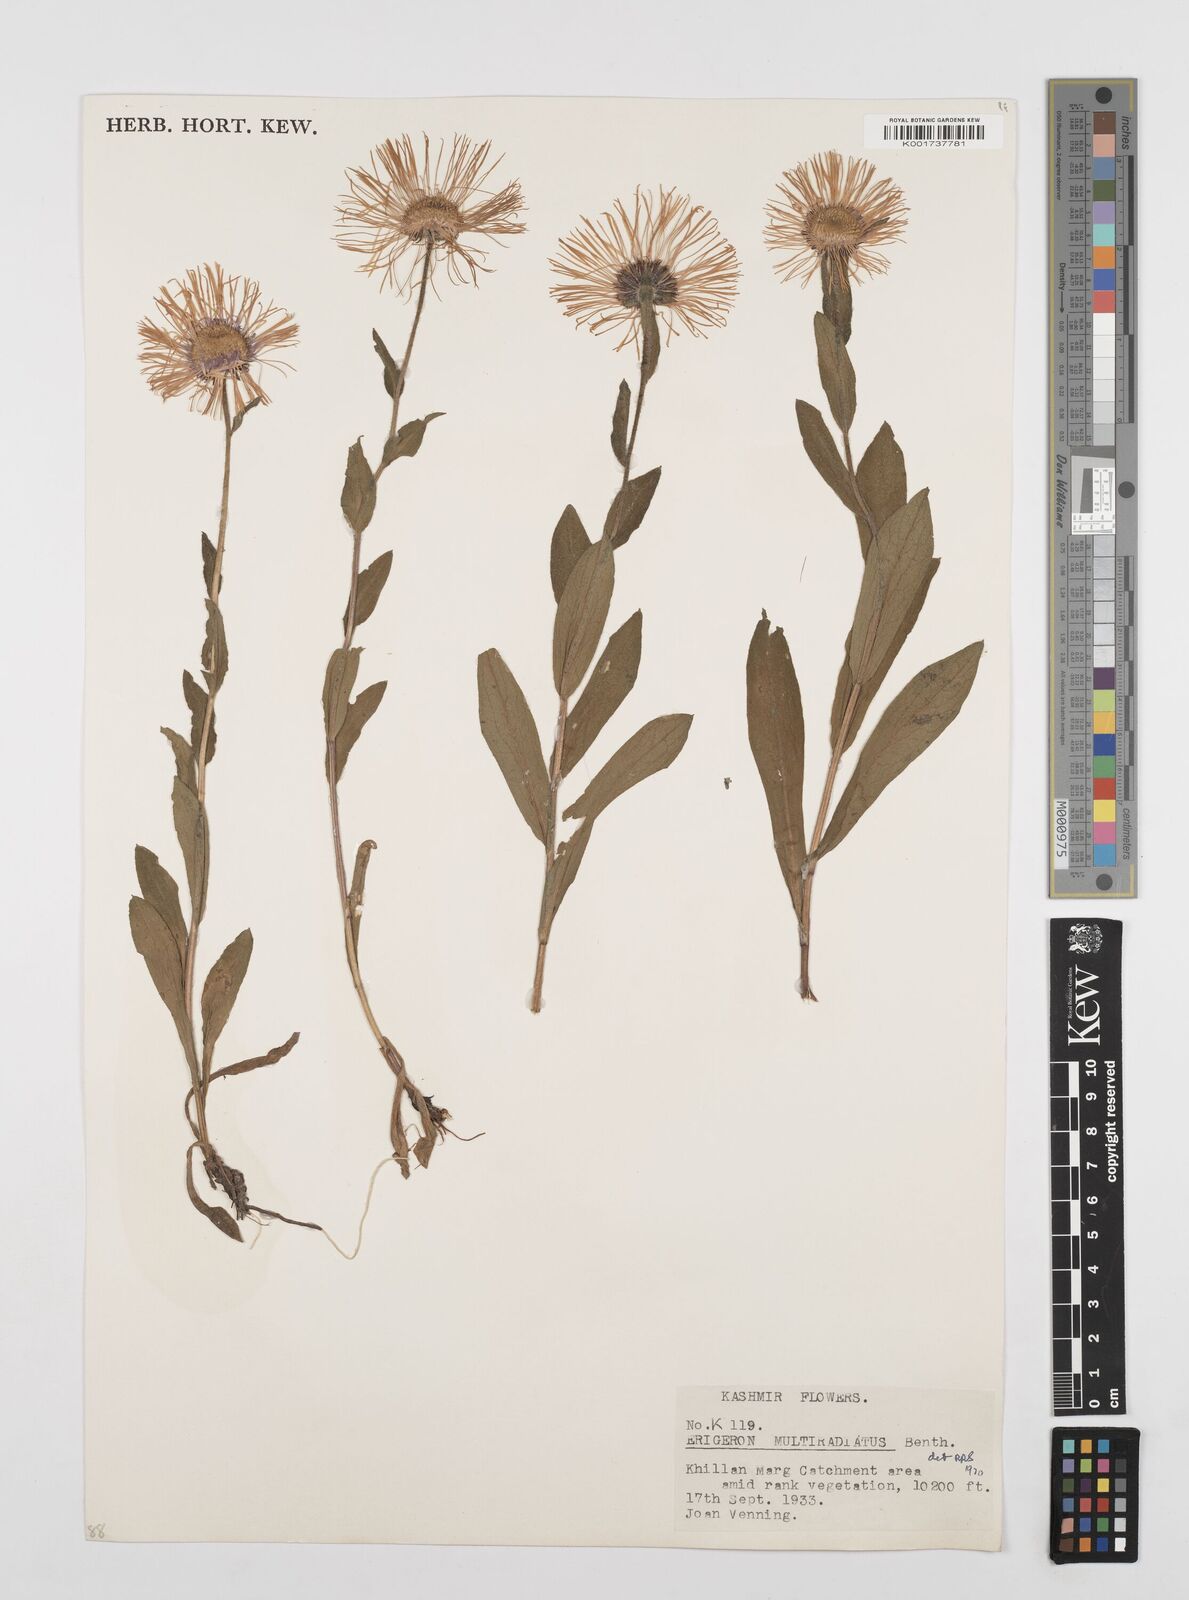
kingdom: Plantae
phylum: Tracheophyta
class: Magnoliopsida
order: Asterales
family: Asteraceae
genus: Erigeron
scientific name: Erigeron multiradiatus
